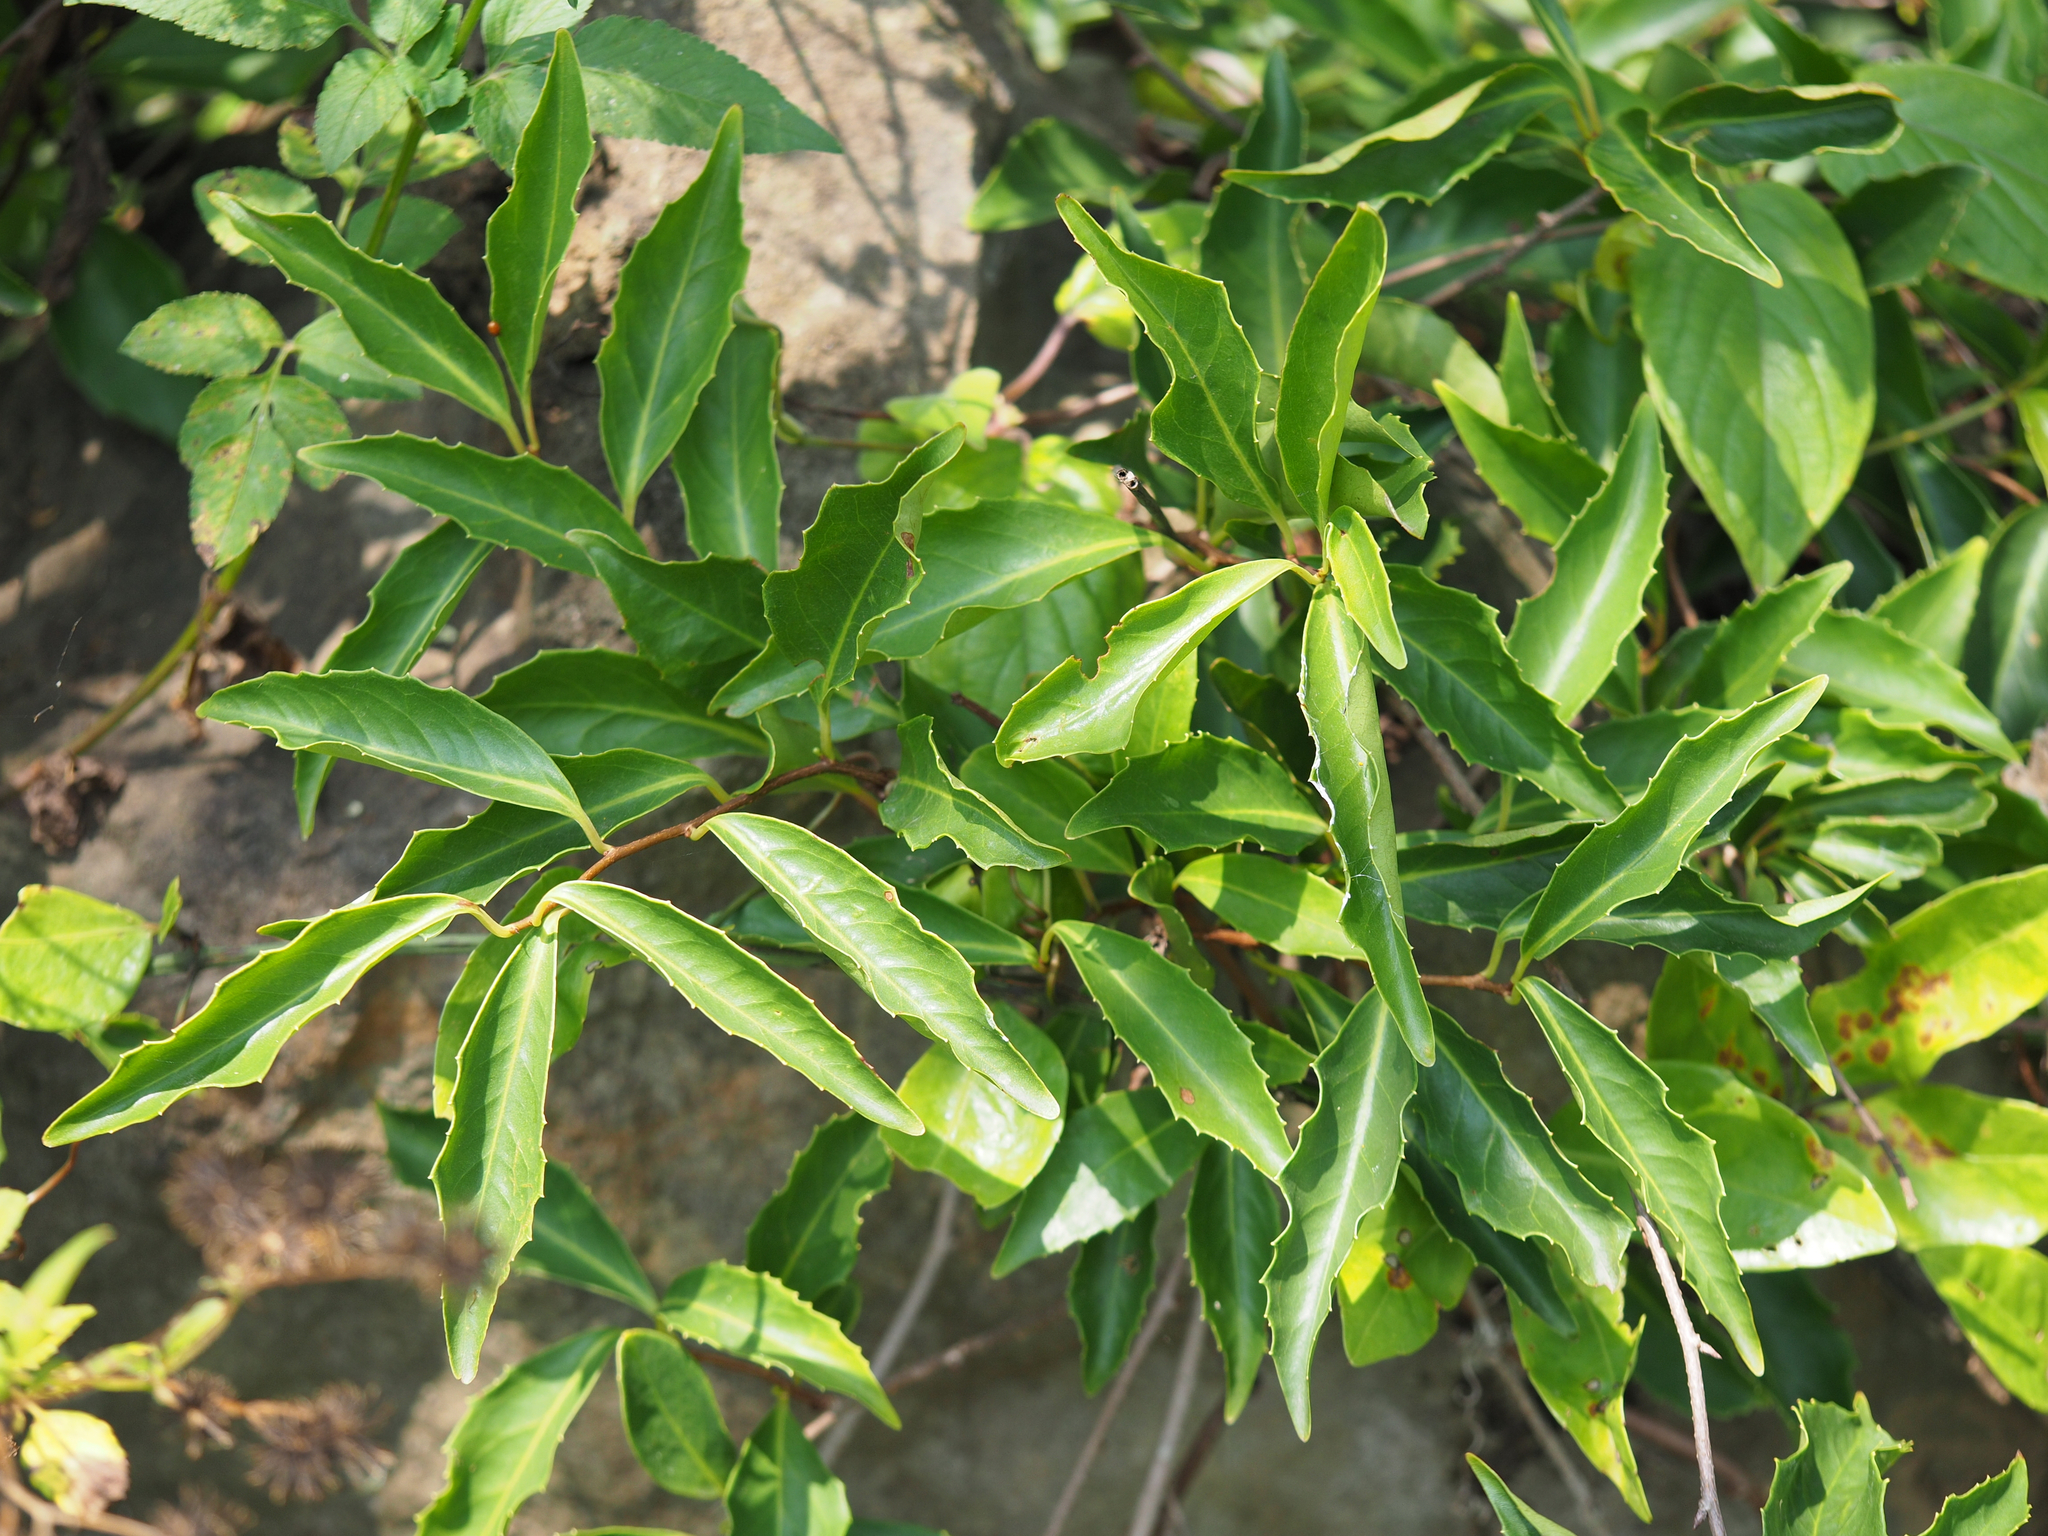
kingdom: Plantae
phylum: Tracheophyta
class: Magnoliopsida
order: Austrobaileyales
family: Schisandraceae
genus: Kadsura
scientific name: Kadsura japonica
